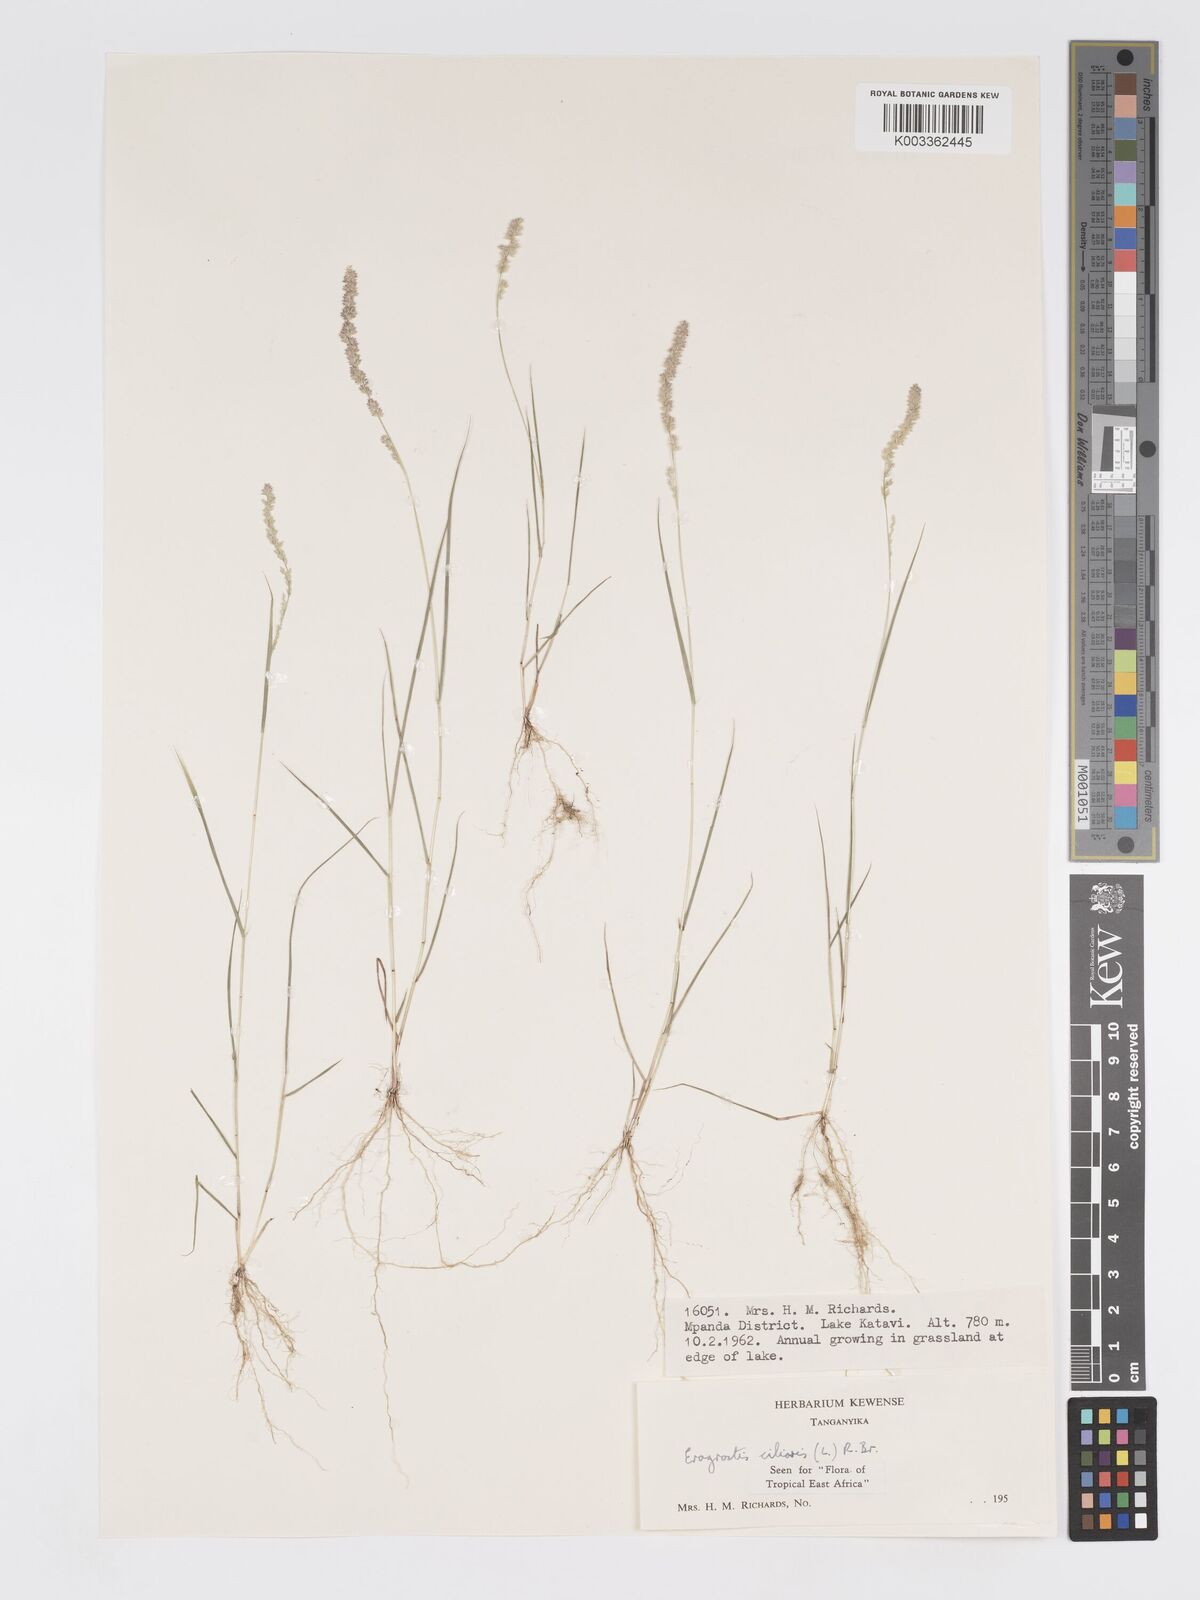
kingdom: Plantae
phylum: Tracheophyta
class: Liliopsida
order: Poales
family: Poaceae
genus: Eragrostis
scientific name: Eragrostis ciliaris
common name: Gophertail lovegrass
